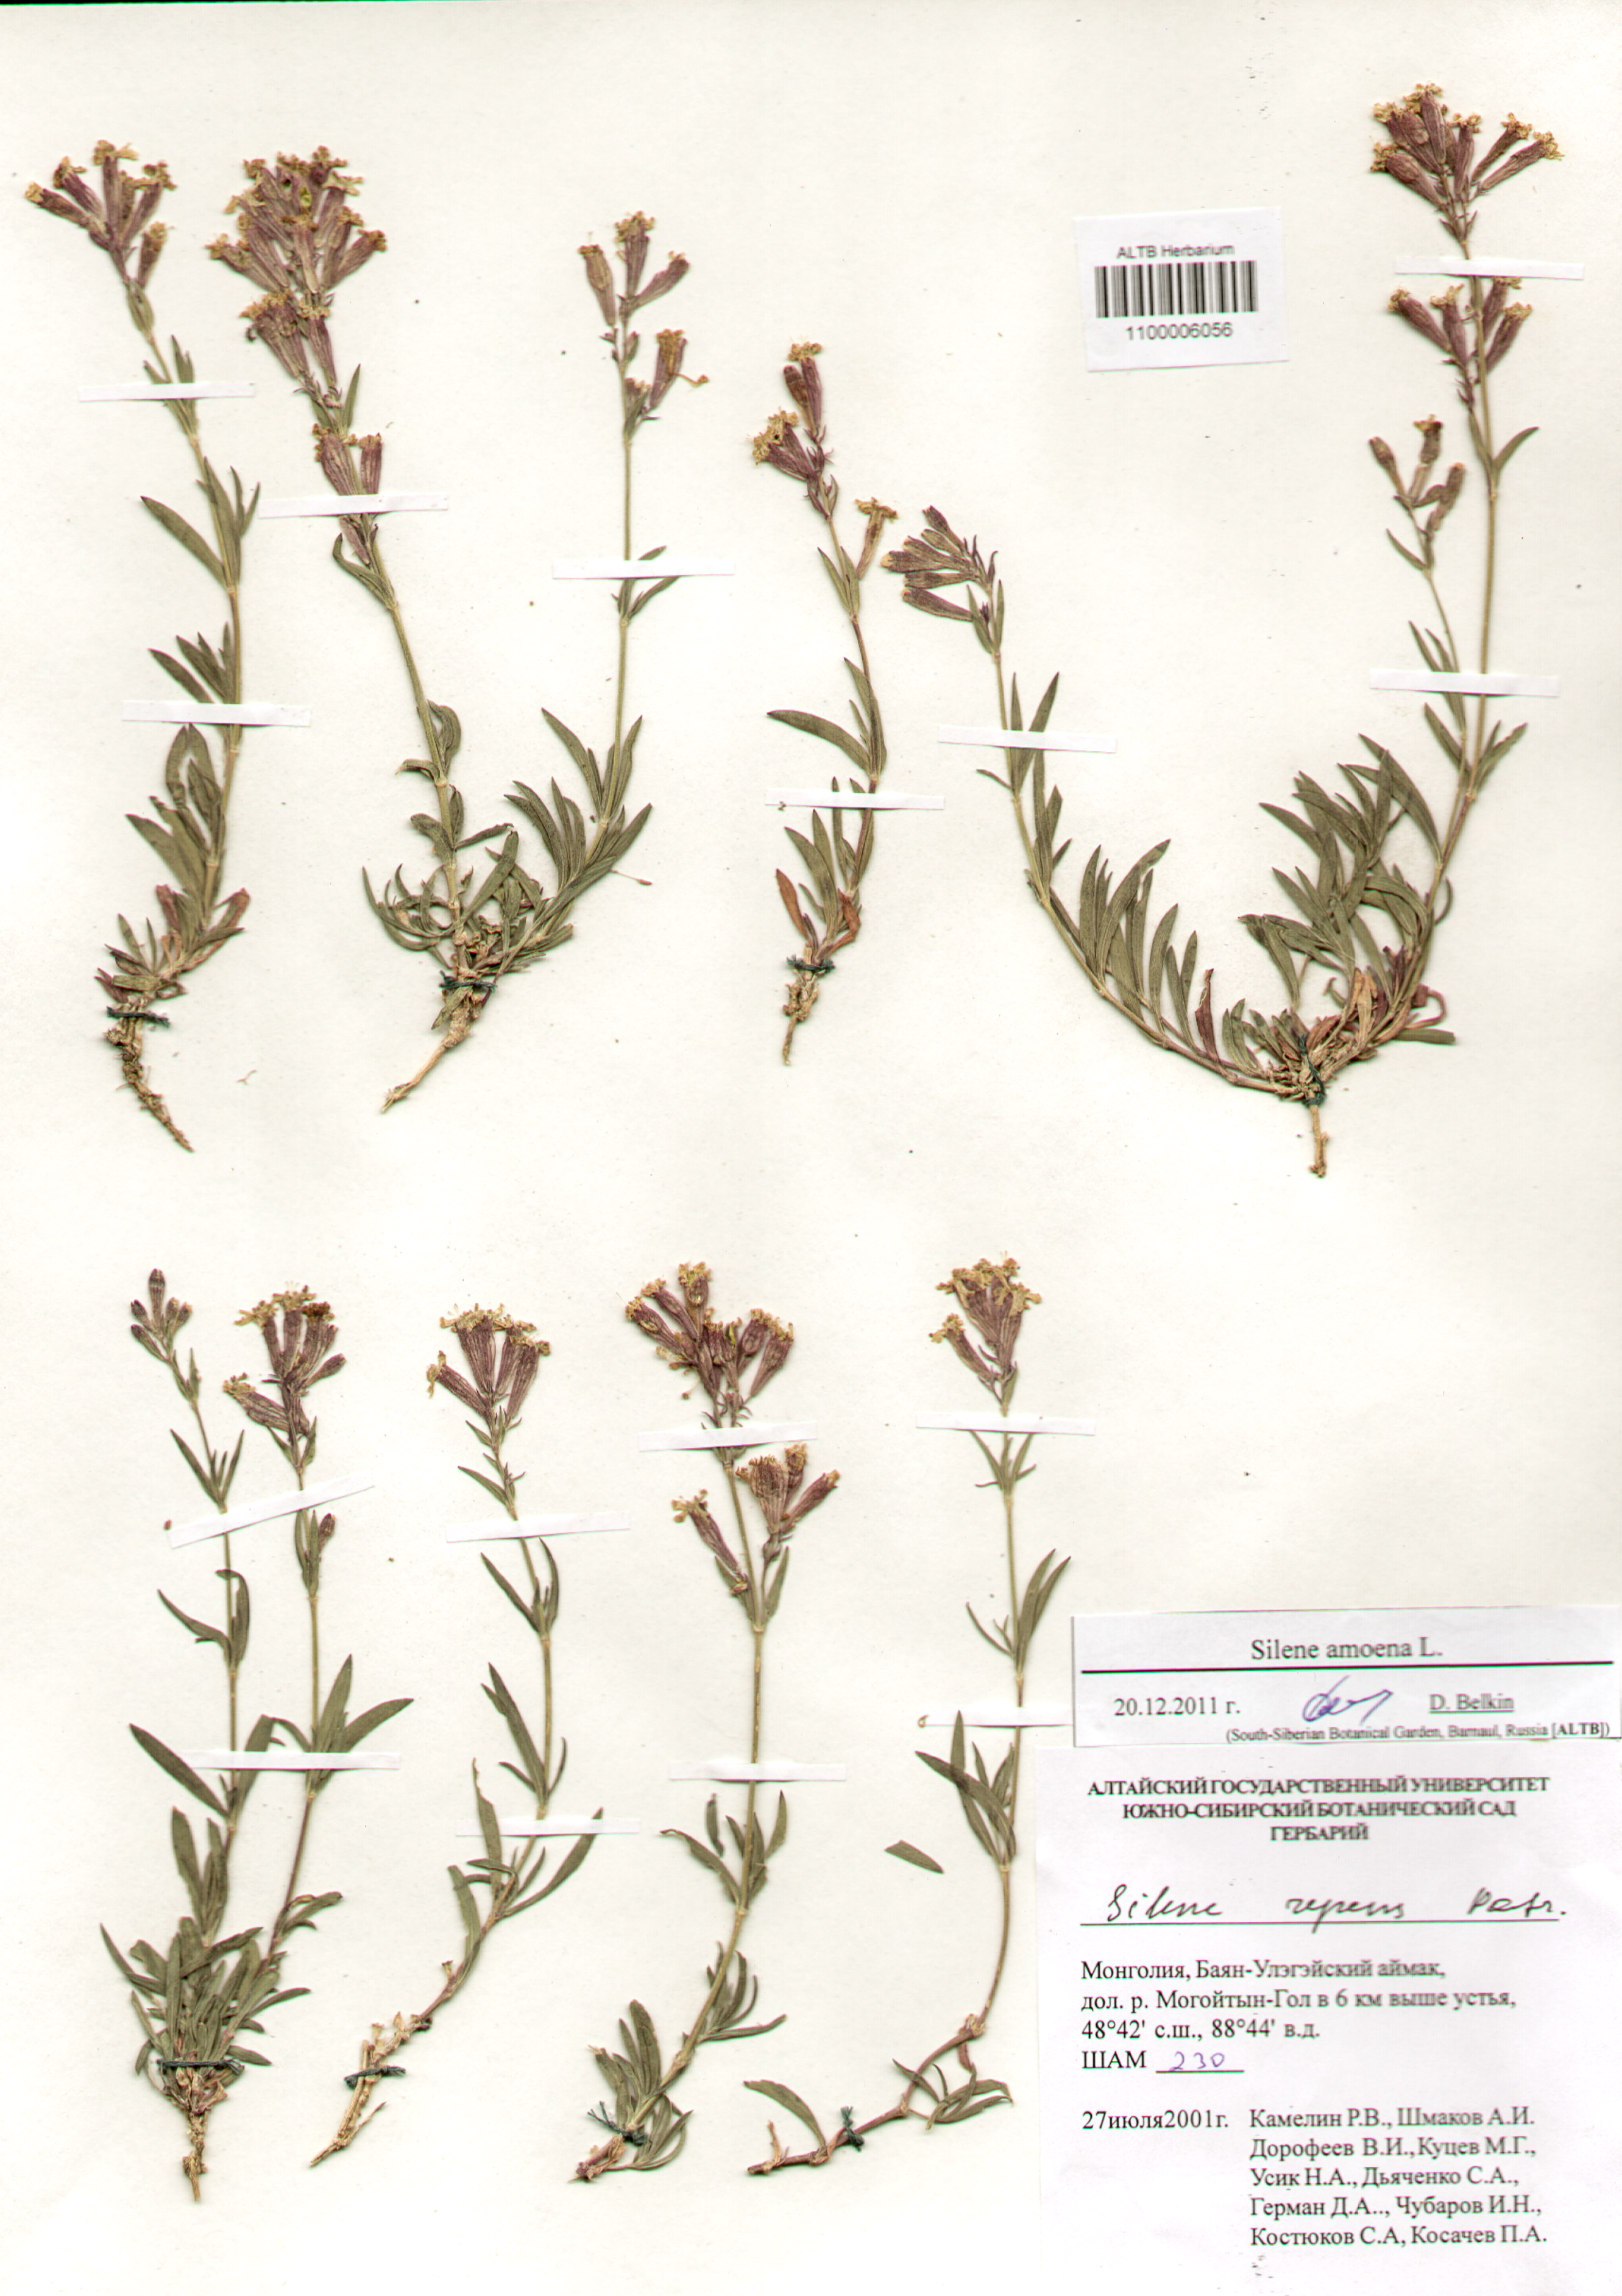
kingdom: Plantae
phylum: Tracheophyta
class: Magnoliopsida
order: Caryophyllales
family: Caryophyllaceae
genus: Silene
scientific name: Silene amoena
